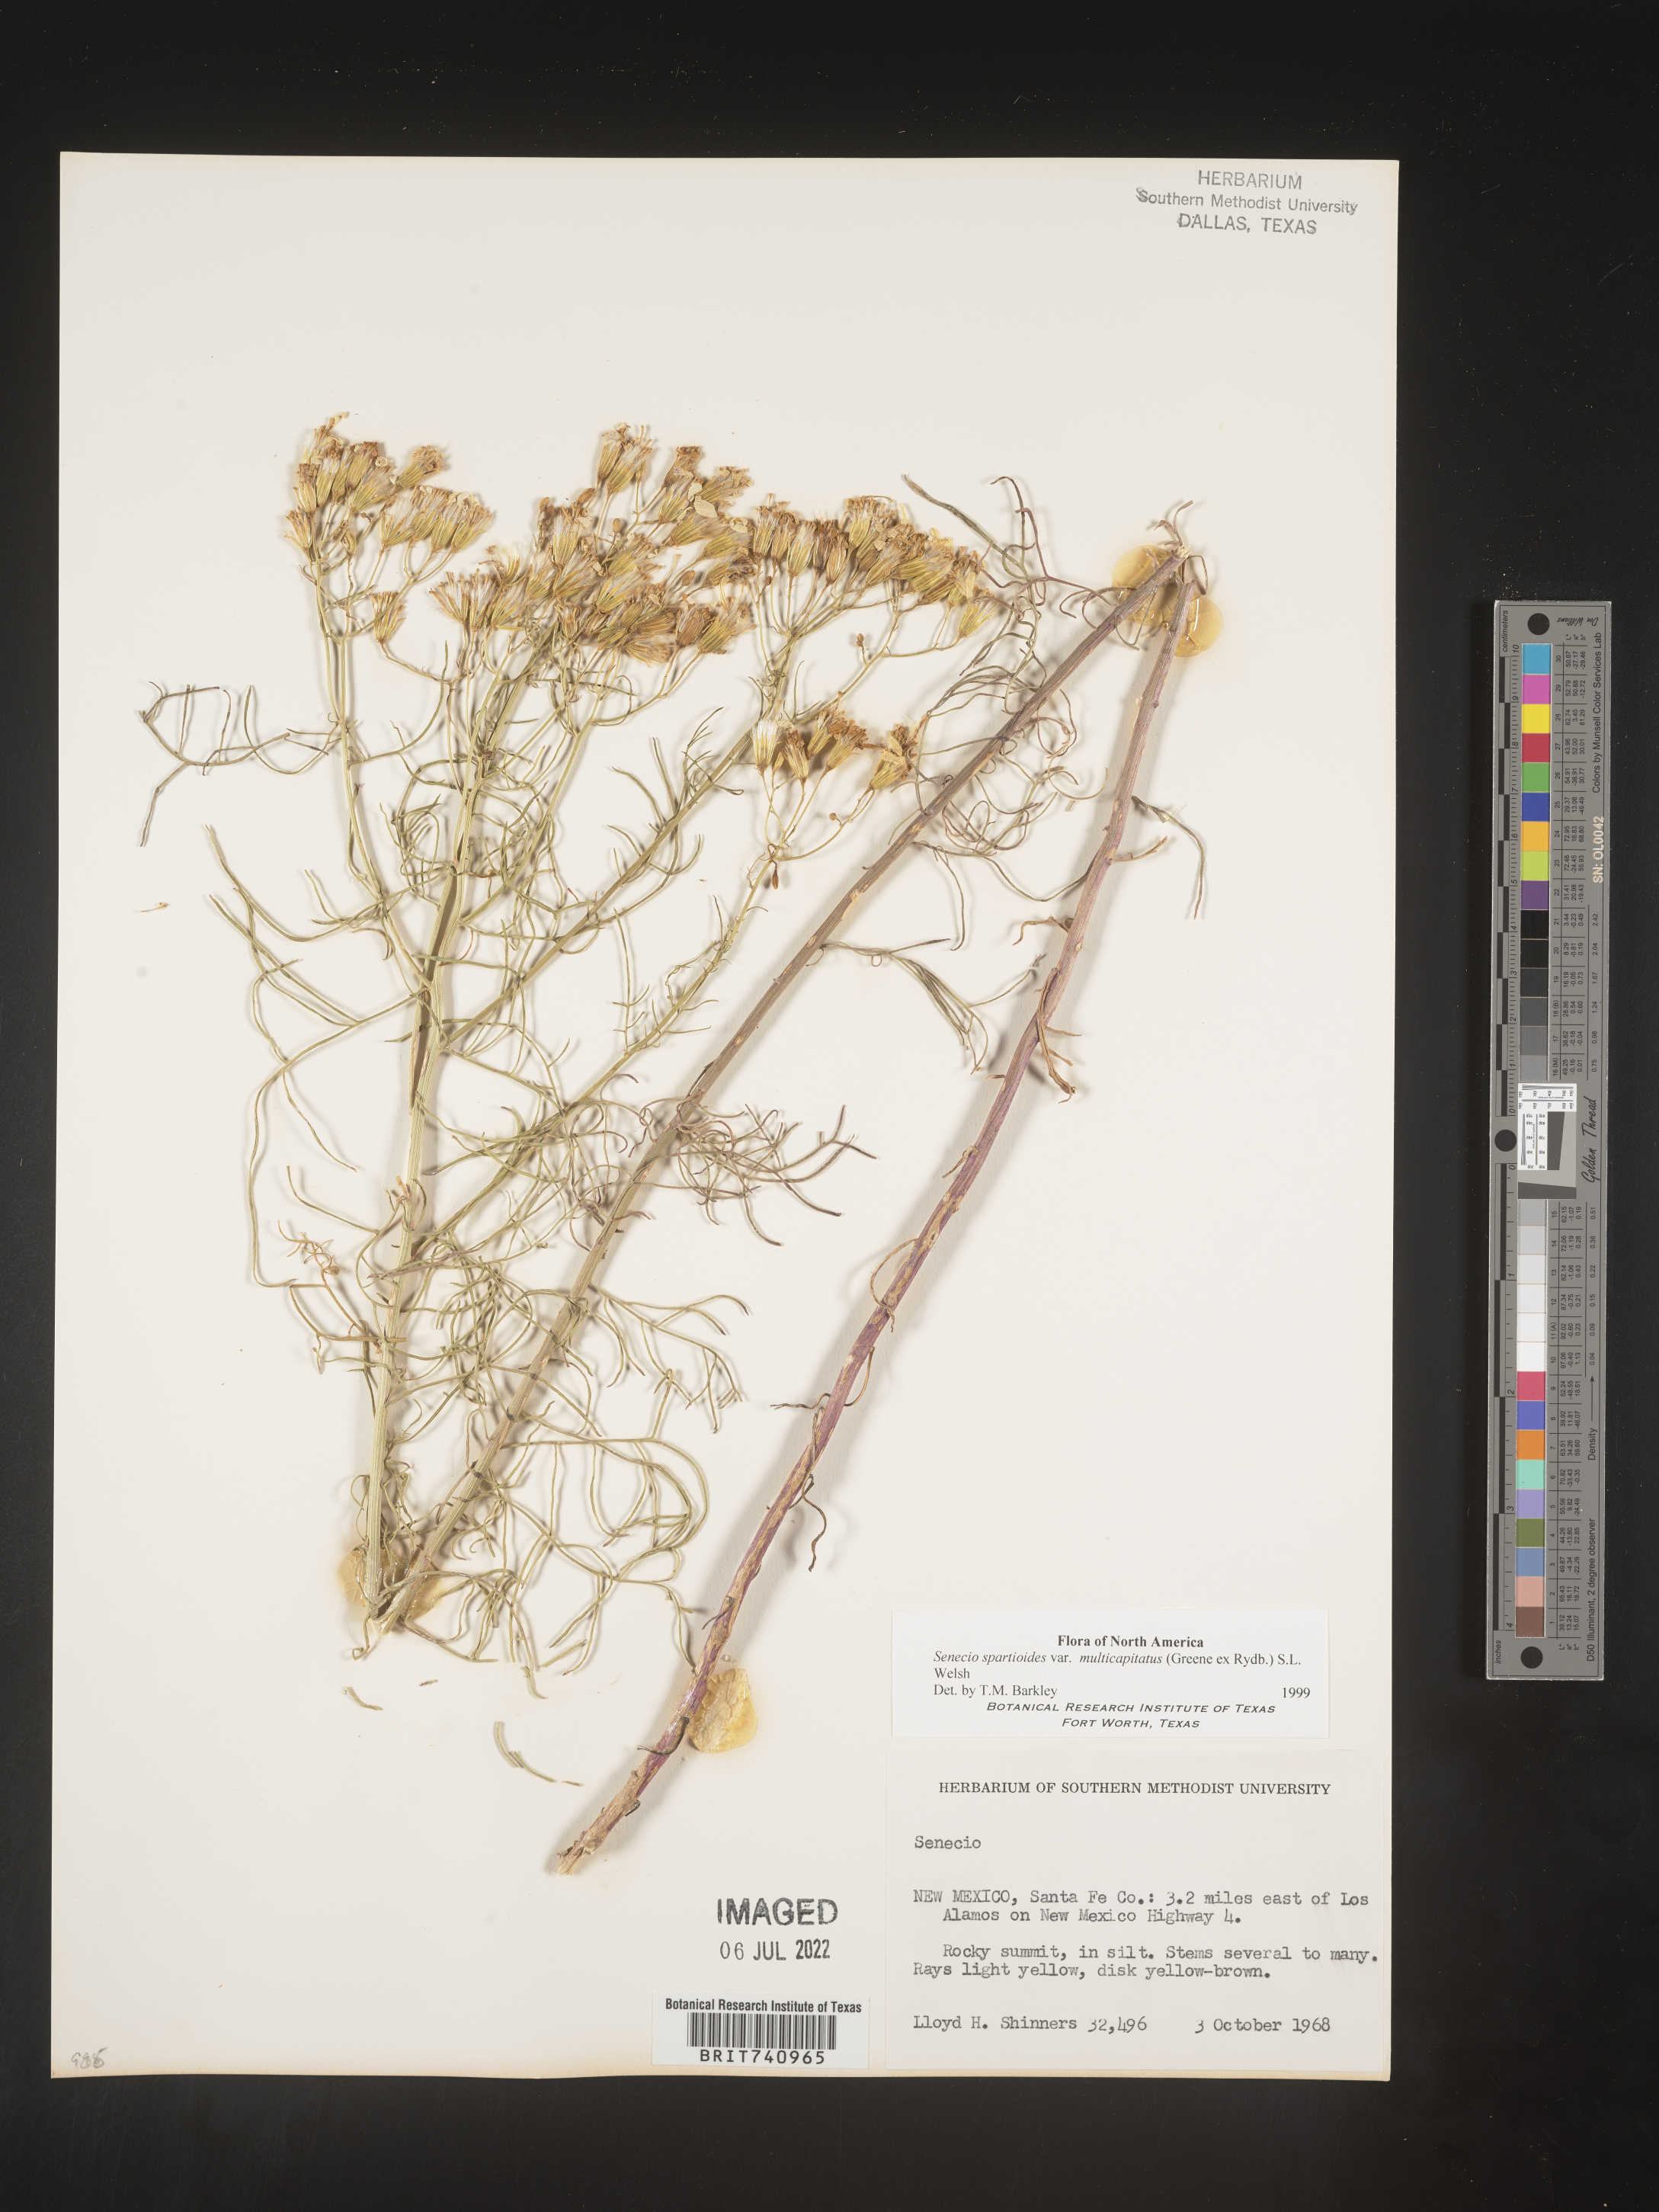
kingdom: Plantae
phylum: Tracheophyta
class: Magnoliopsida
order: Asterales
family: Asteraceae
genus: Senecio
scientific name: Senecio spartioides
